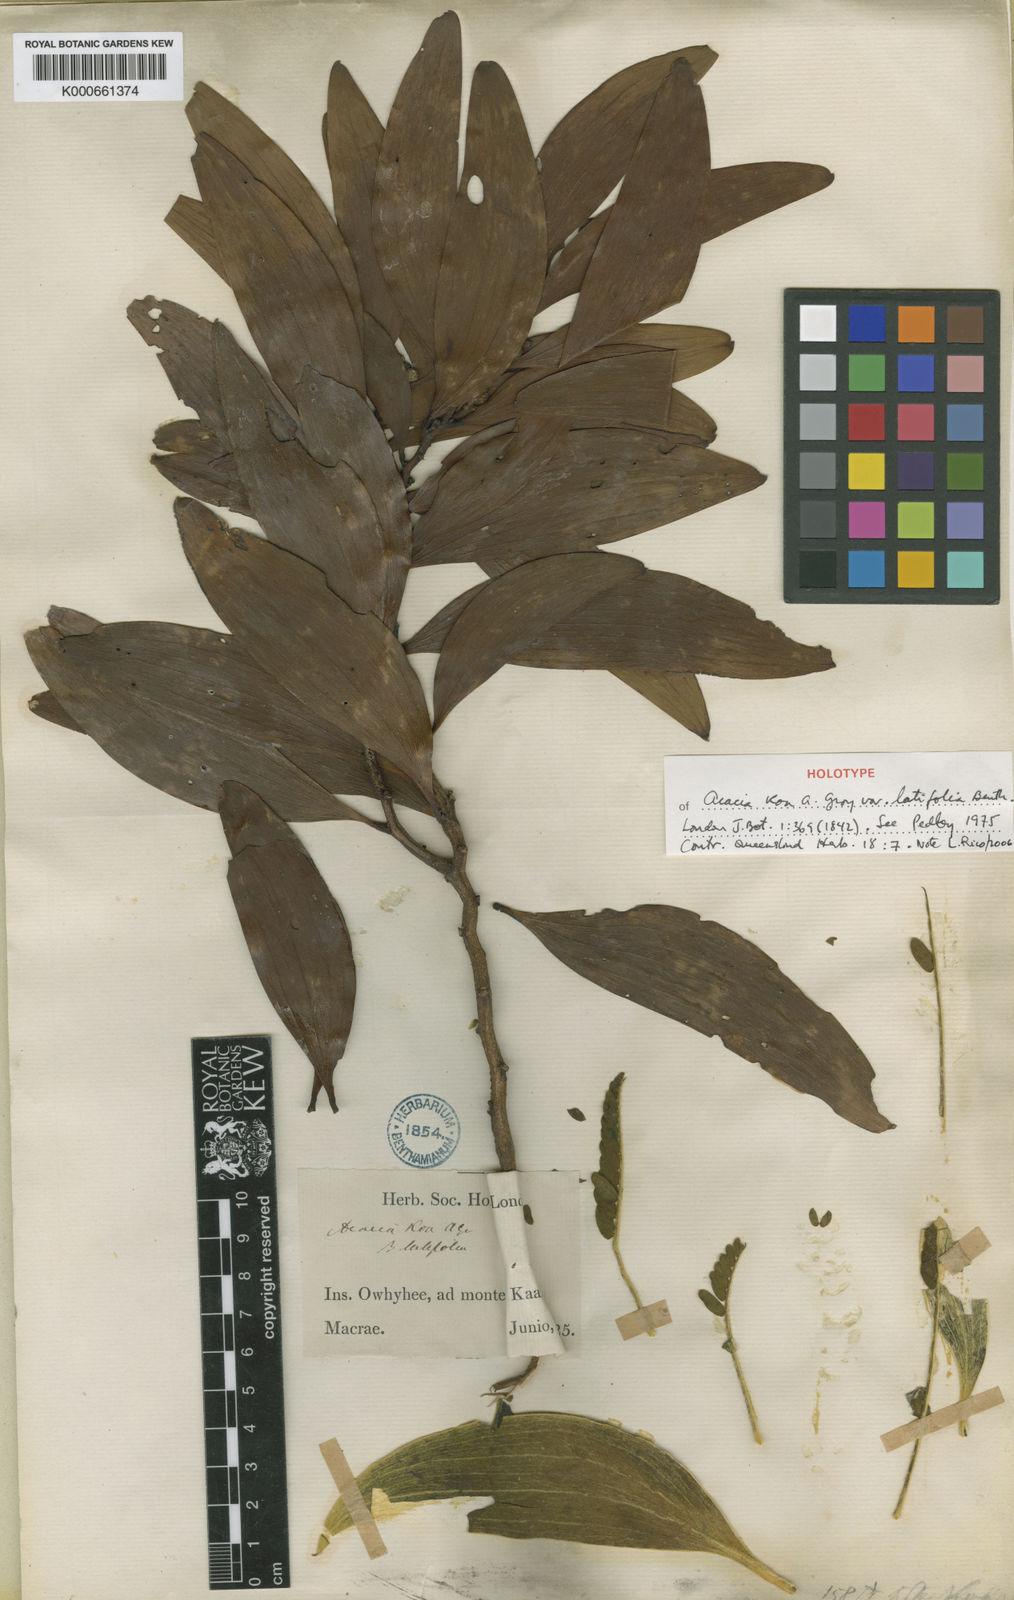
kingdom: Plantae
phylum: Tracheophyta
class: Magnoliopsida
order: Fabales
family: Fabaceae
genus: Acacia
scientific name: Acacia koa
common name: Gray koa
